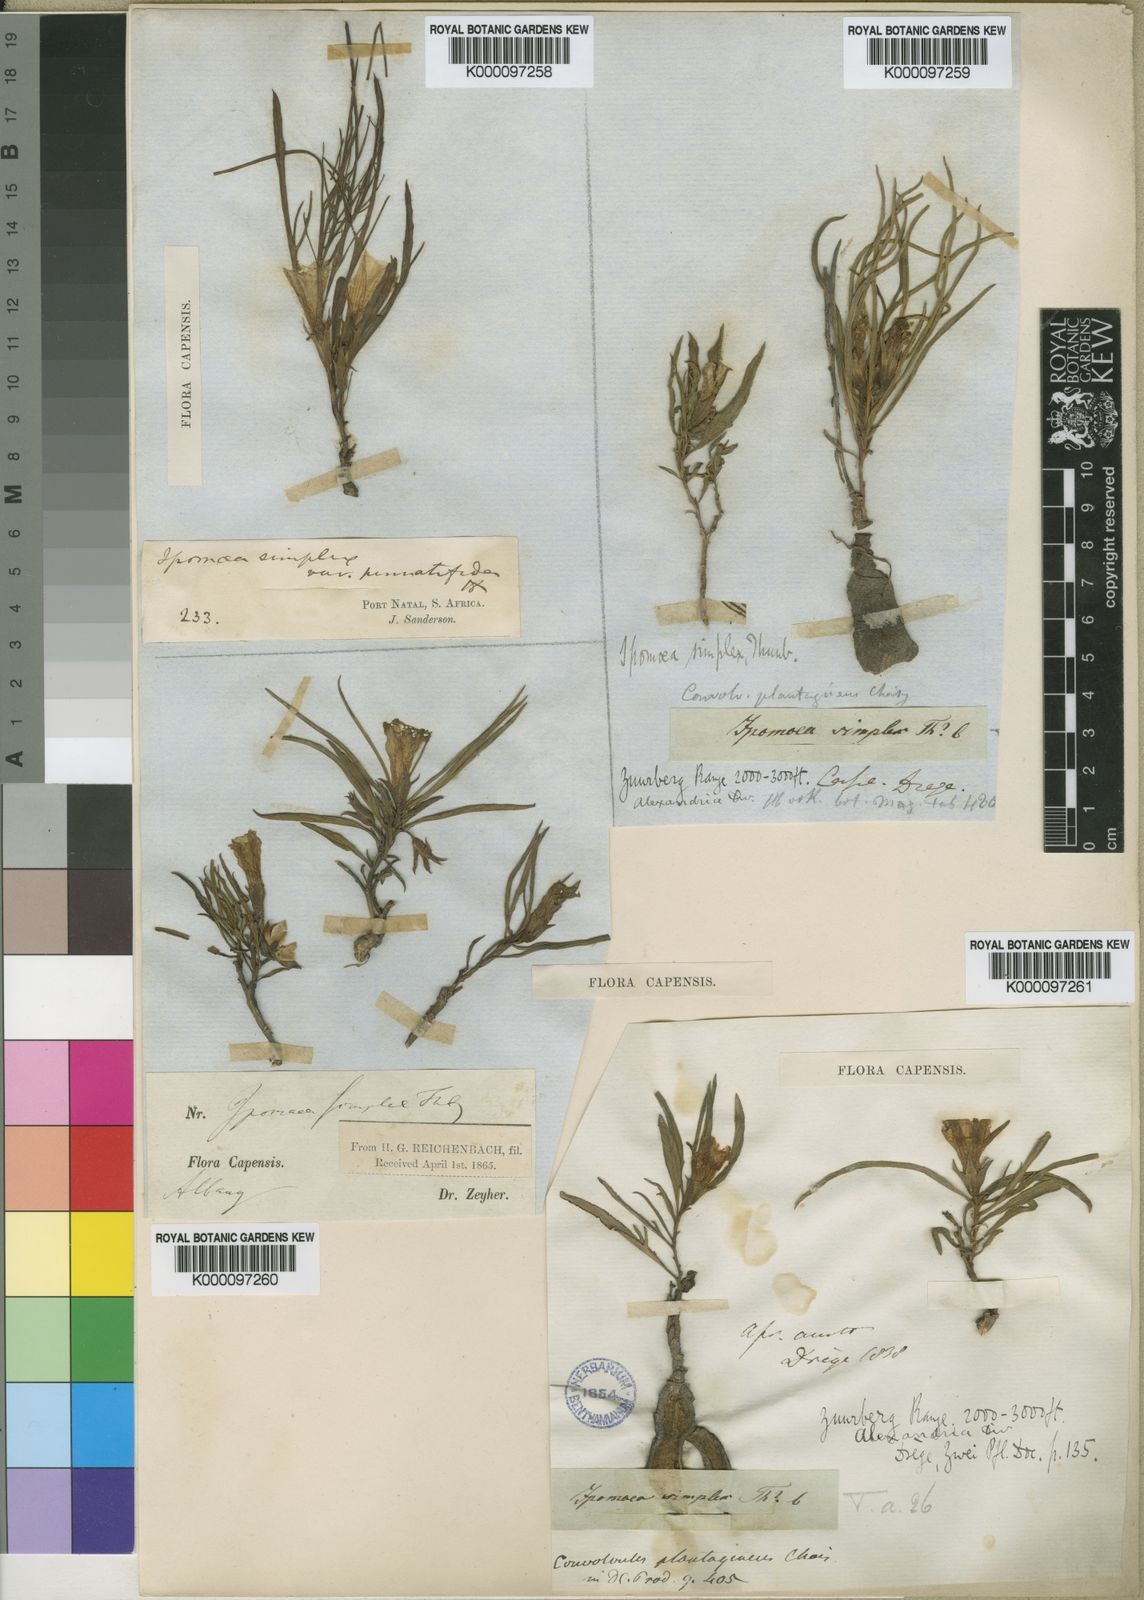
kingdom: Plantae
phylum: Tracheophyta
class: Magnoliopsida
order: Solanales
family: Convolvulaceae
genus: Ipomoea
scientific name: Ipomoea simplex
